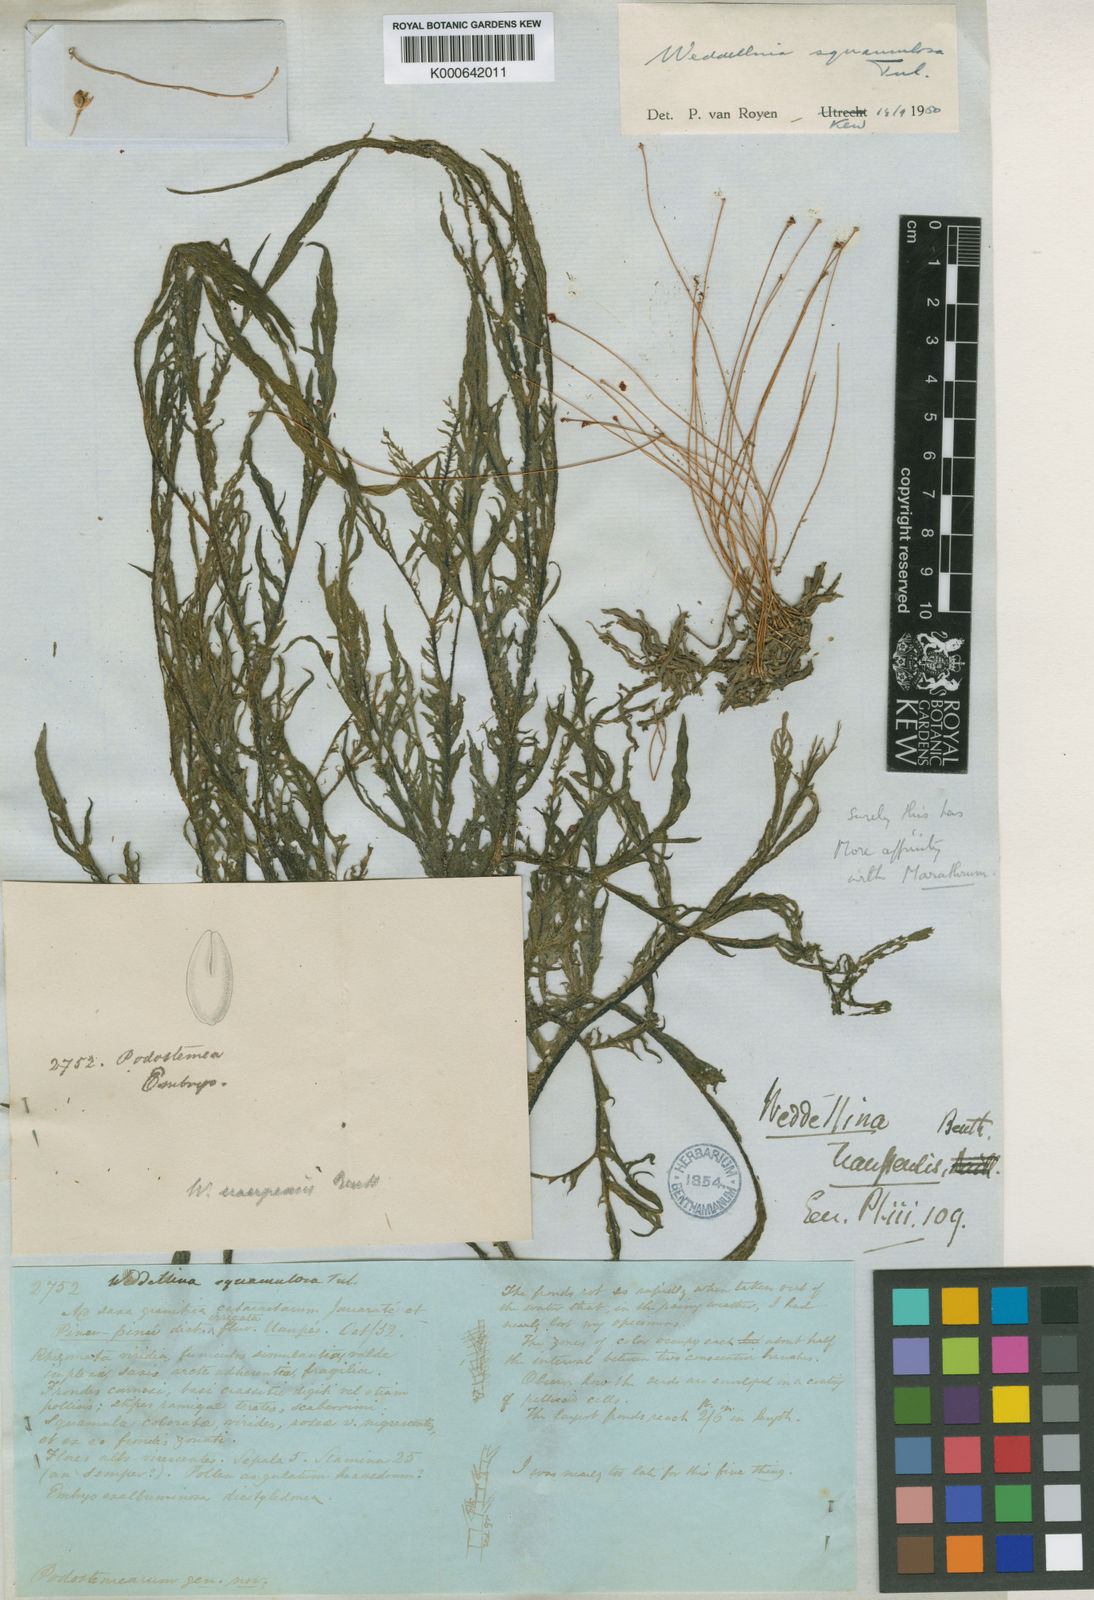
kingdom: Plantae
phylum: Tracheophyta
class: Magnoliopsida
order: Malpighiales
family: Podostemaceae
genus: Weddellina
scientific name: Weddellina squamulosa
